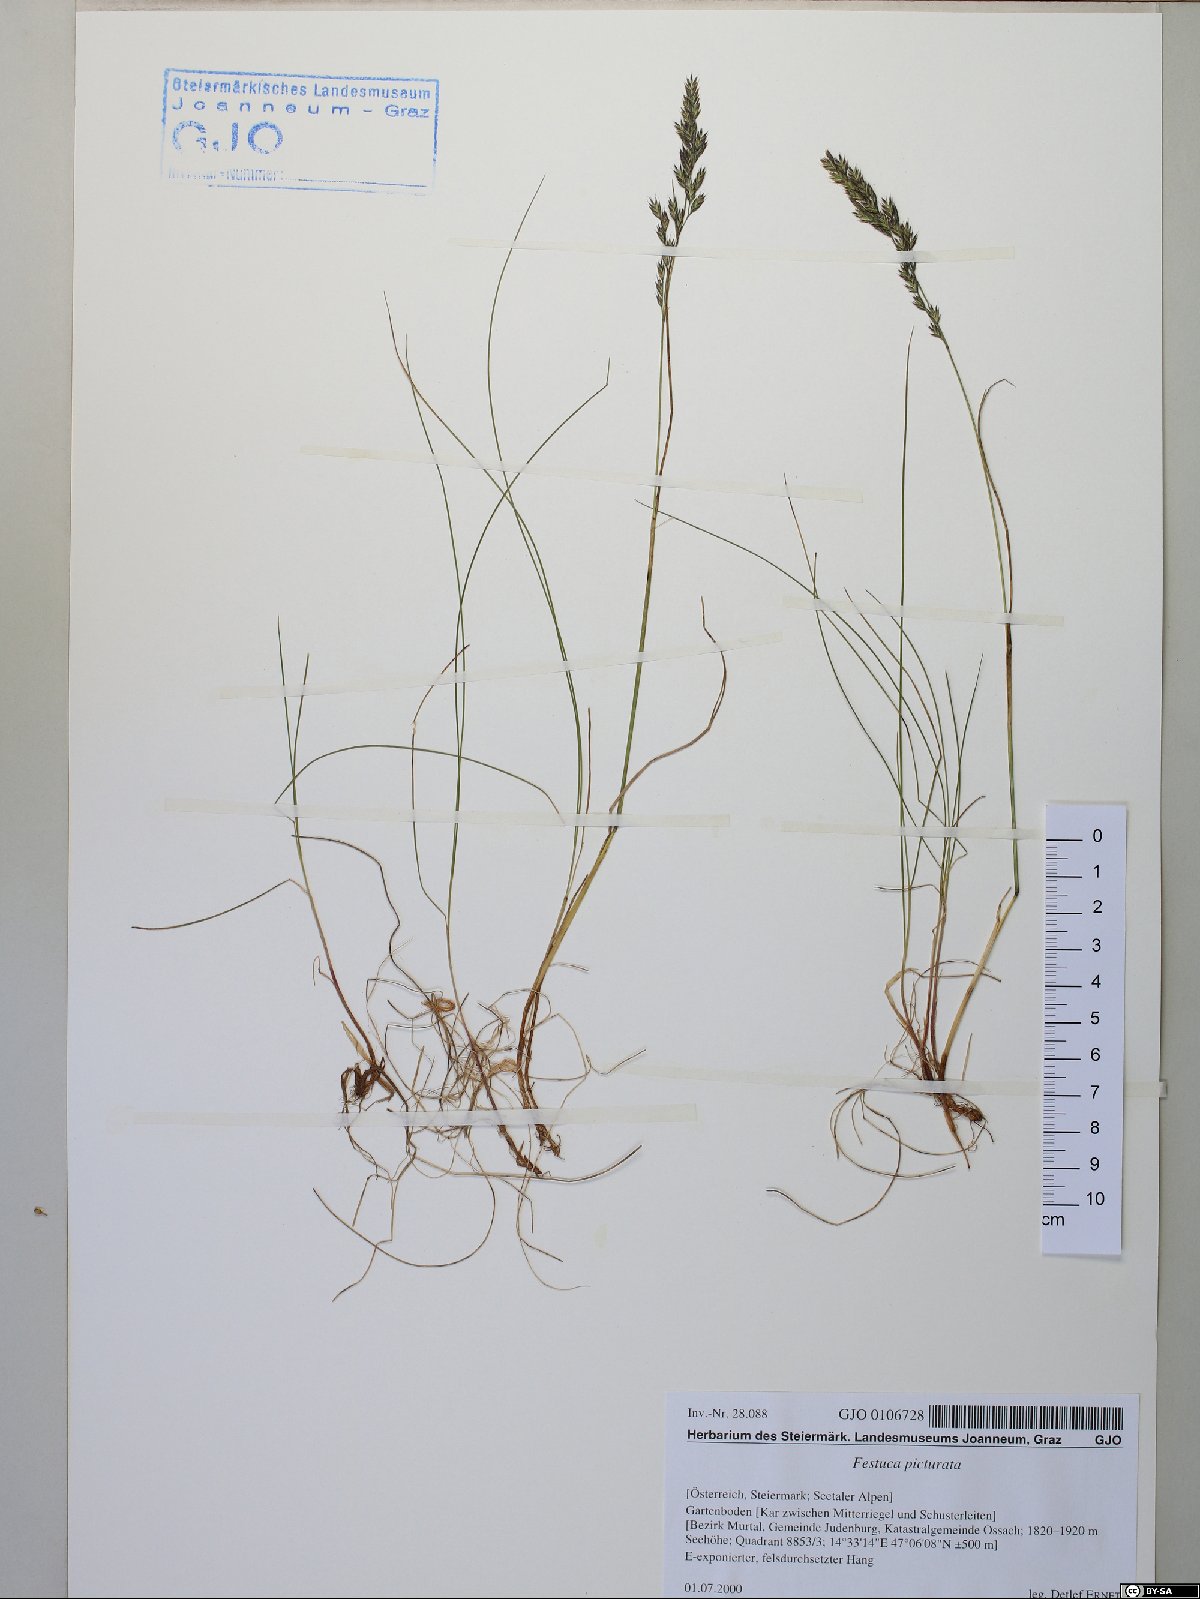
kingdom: Plantae
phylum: Tracheophyta
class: Liliopsida
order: Poales
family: Poaceae
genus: Festuca
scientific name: Festuca picturata
